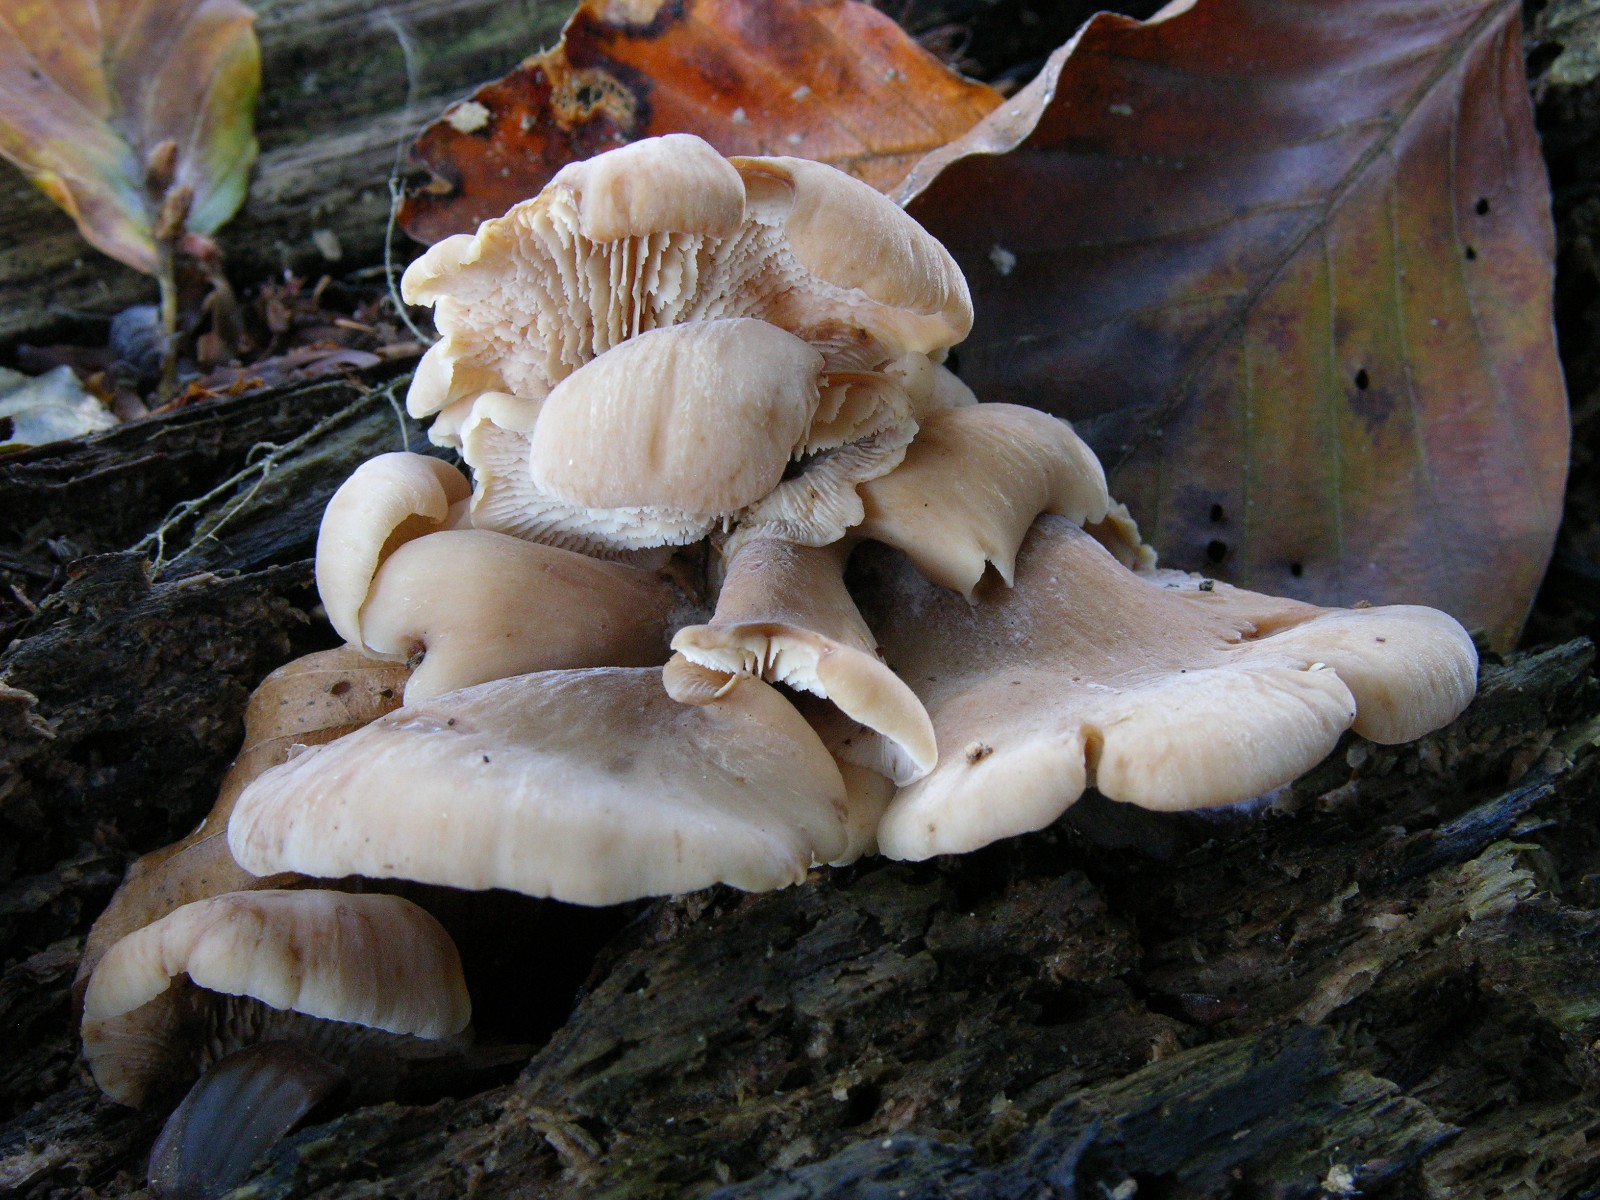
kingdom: Fungi
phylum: Basidiomycota
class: Agaricomycetes
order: Russulales
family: Auriscalpiaceae
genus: Lentinellus
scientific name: Lentinellus ursinus
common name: børstehåret savbladhat
